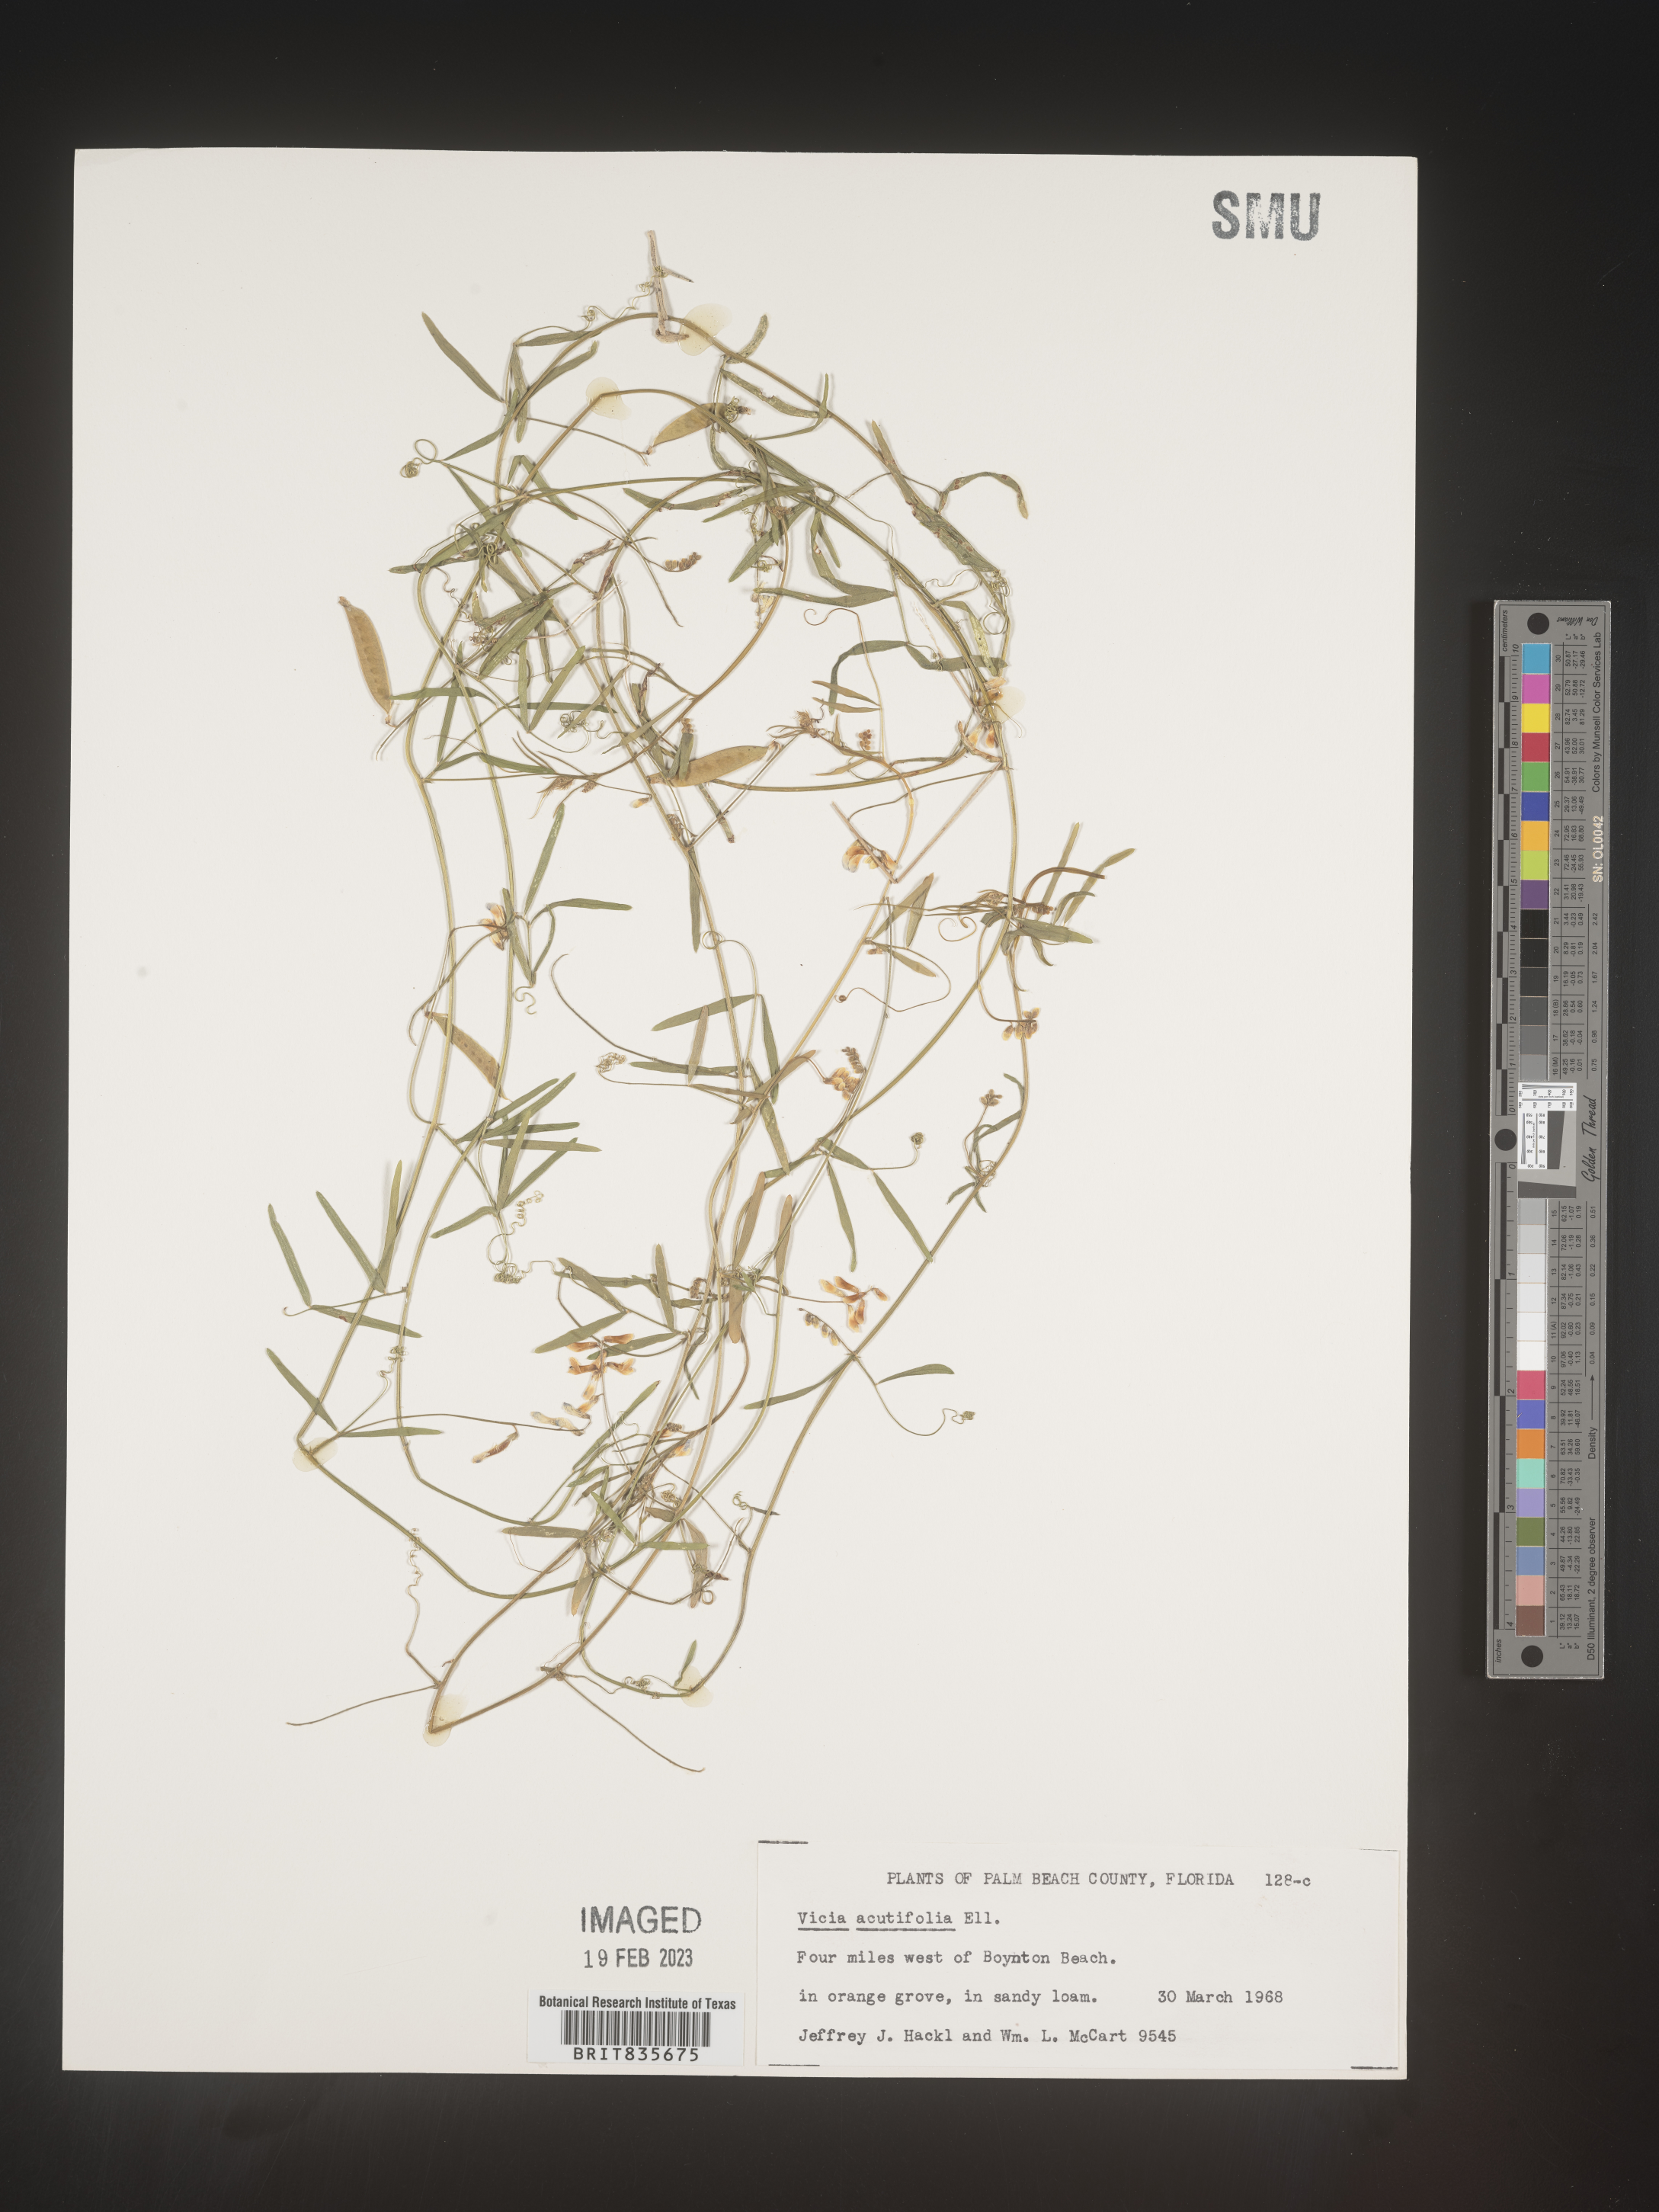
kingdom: Plantae
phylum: Tracheophyta
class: Magnoliopsida
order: Fabales
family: Fabaceae
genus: Vicia
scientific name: Vicia acutifolia
